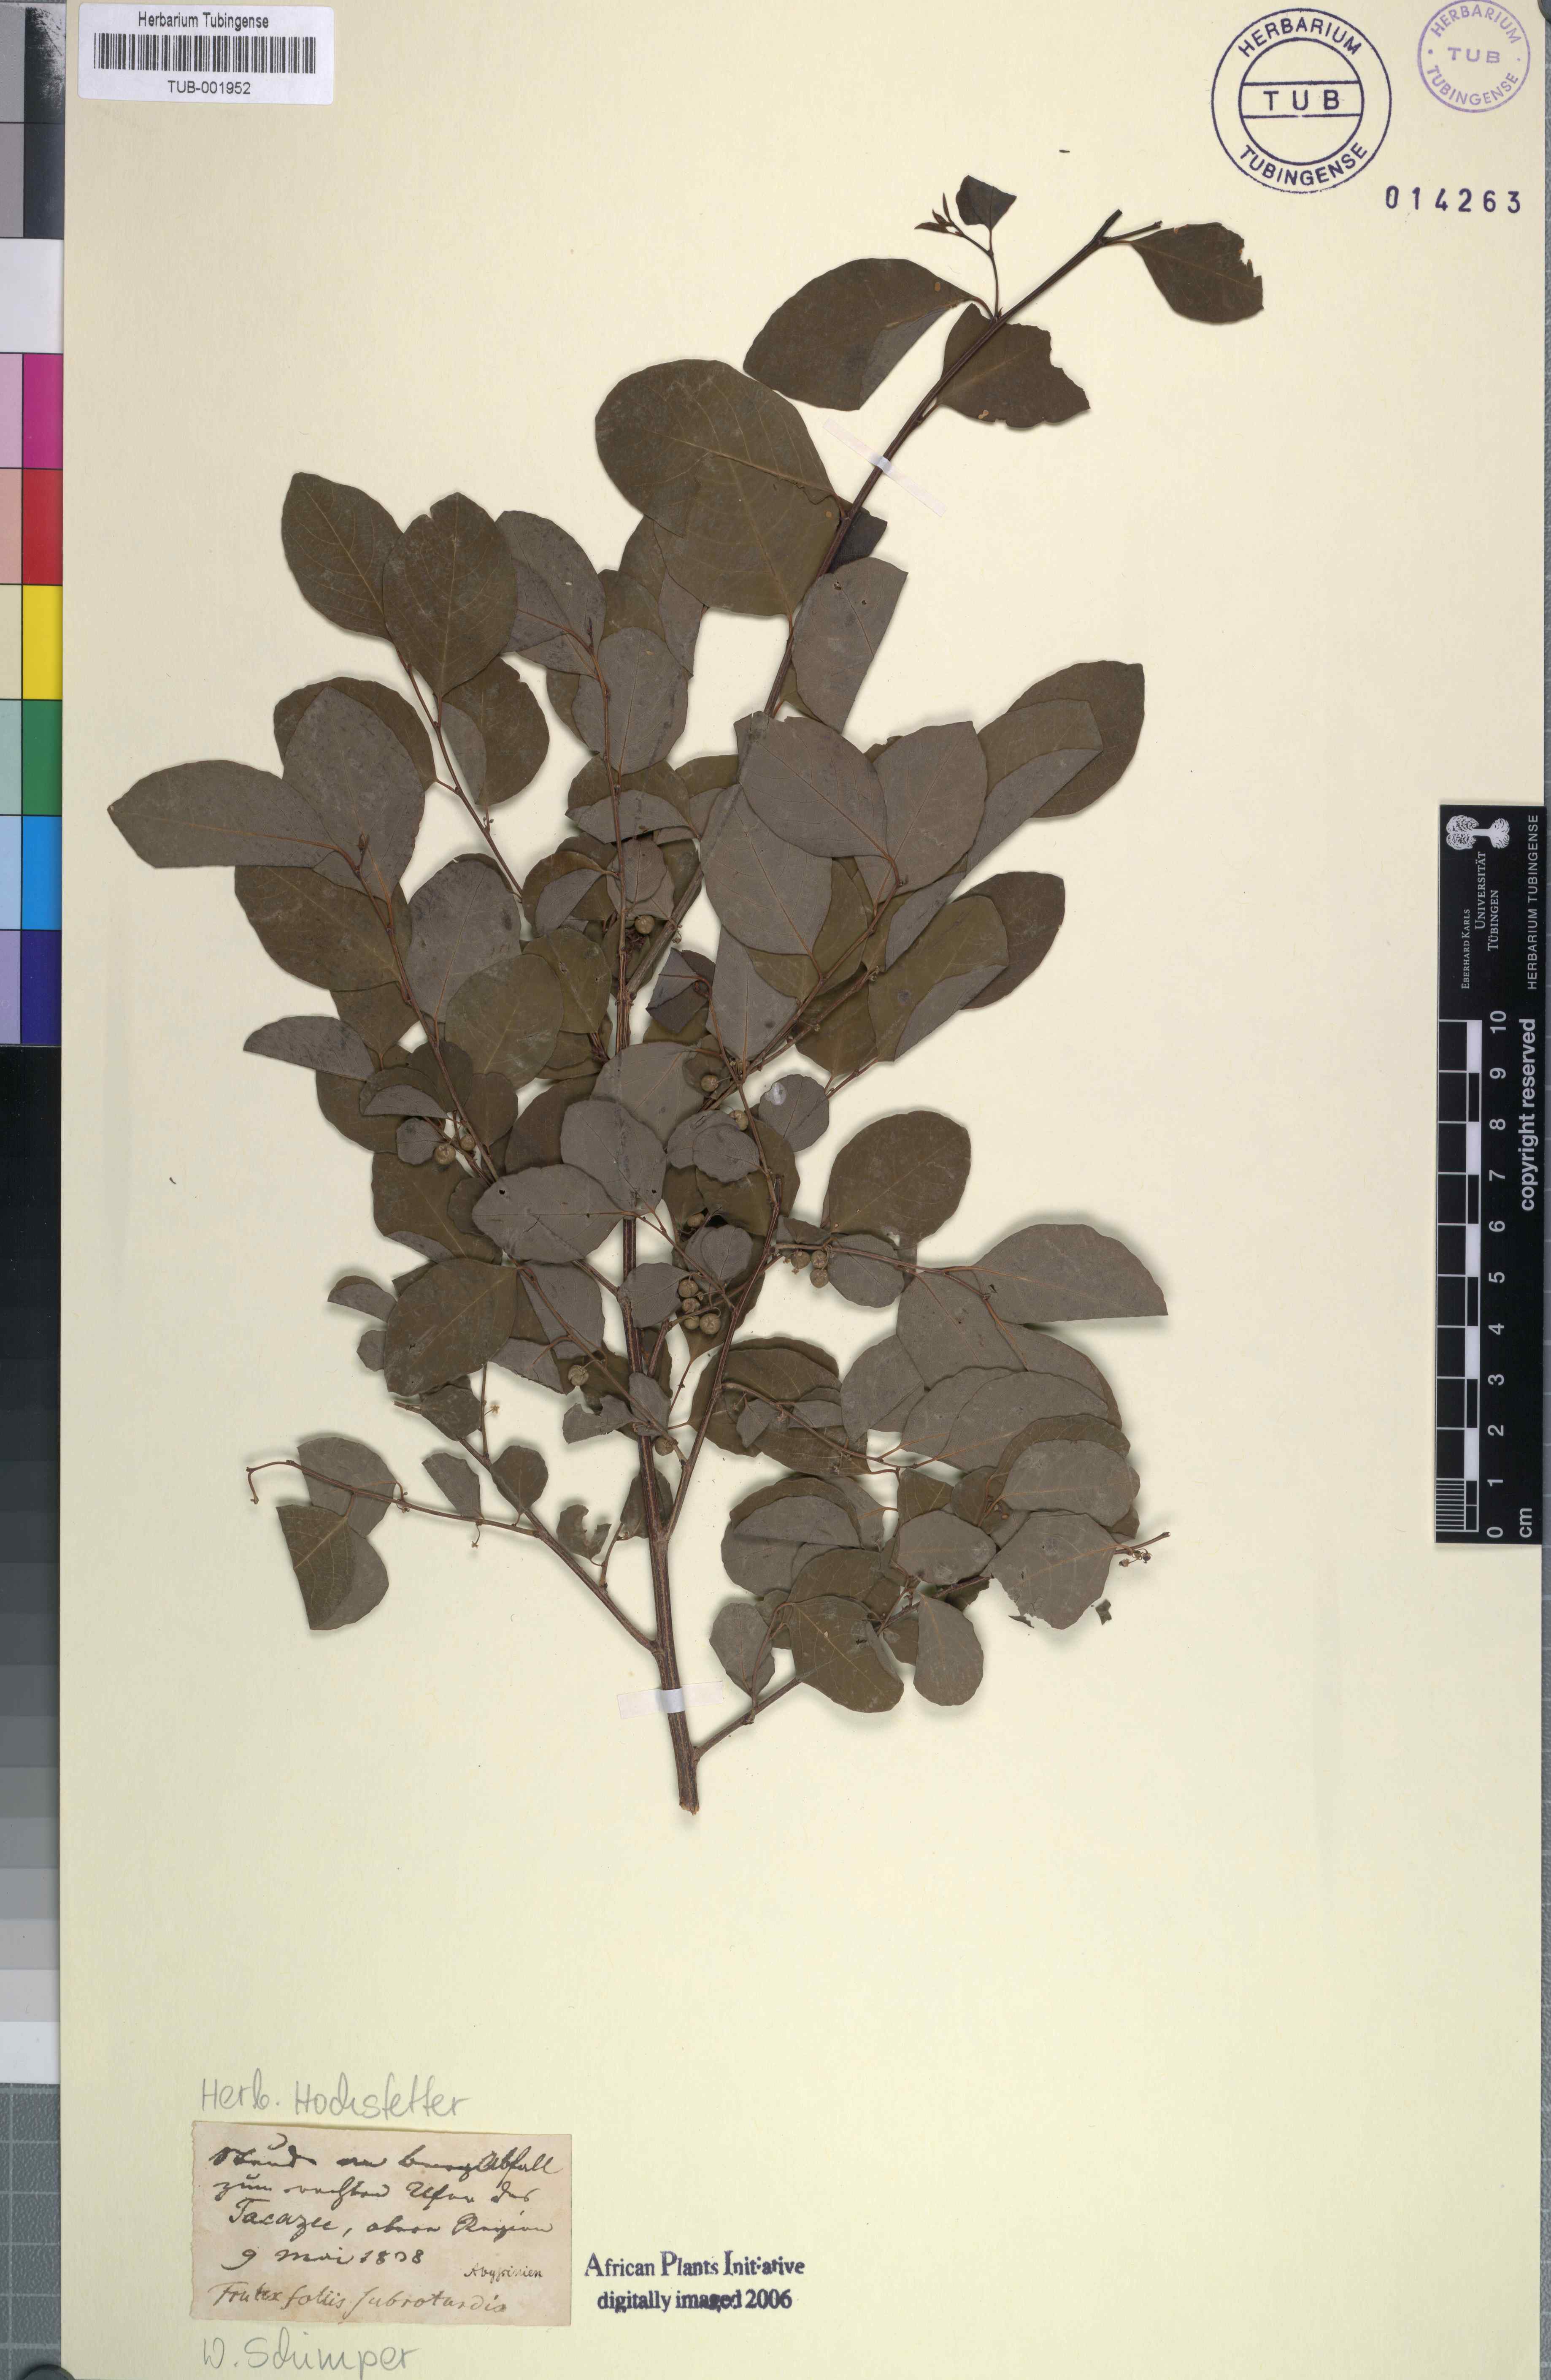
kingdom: Plantae
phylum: Tracheophyta
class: Magnoliopsida
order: Malpighiales
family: Phyllanthaceae
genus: Flueggea
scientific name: Flueggea virosa
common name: Common bushweed
